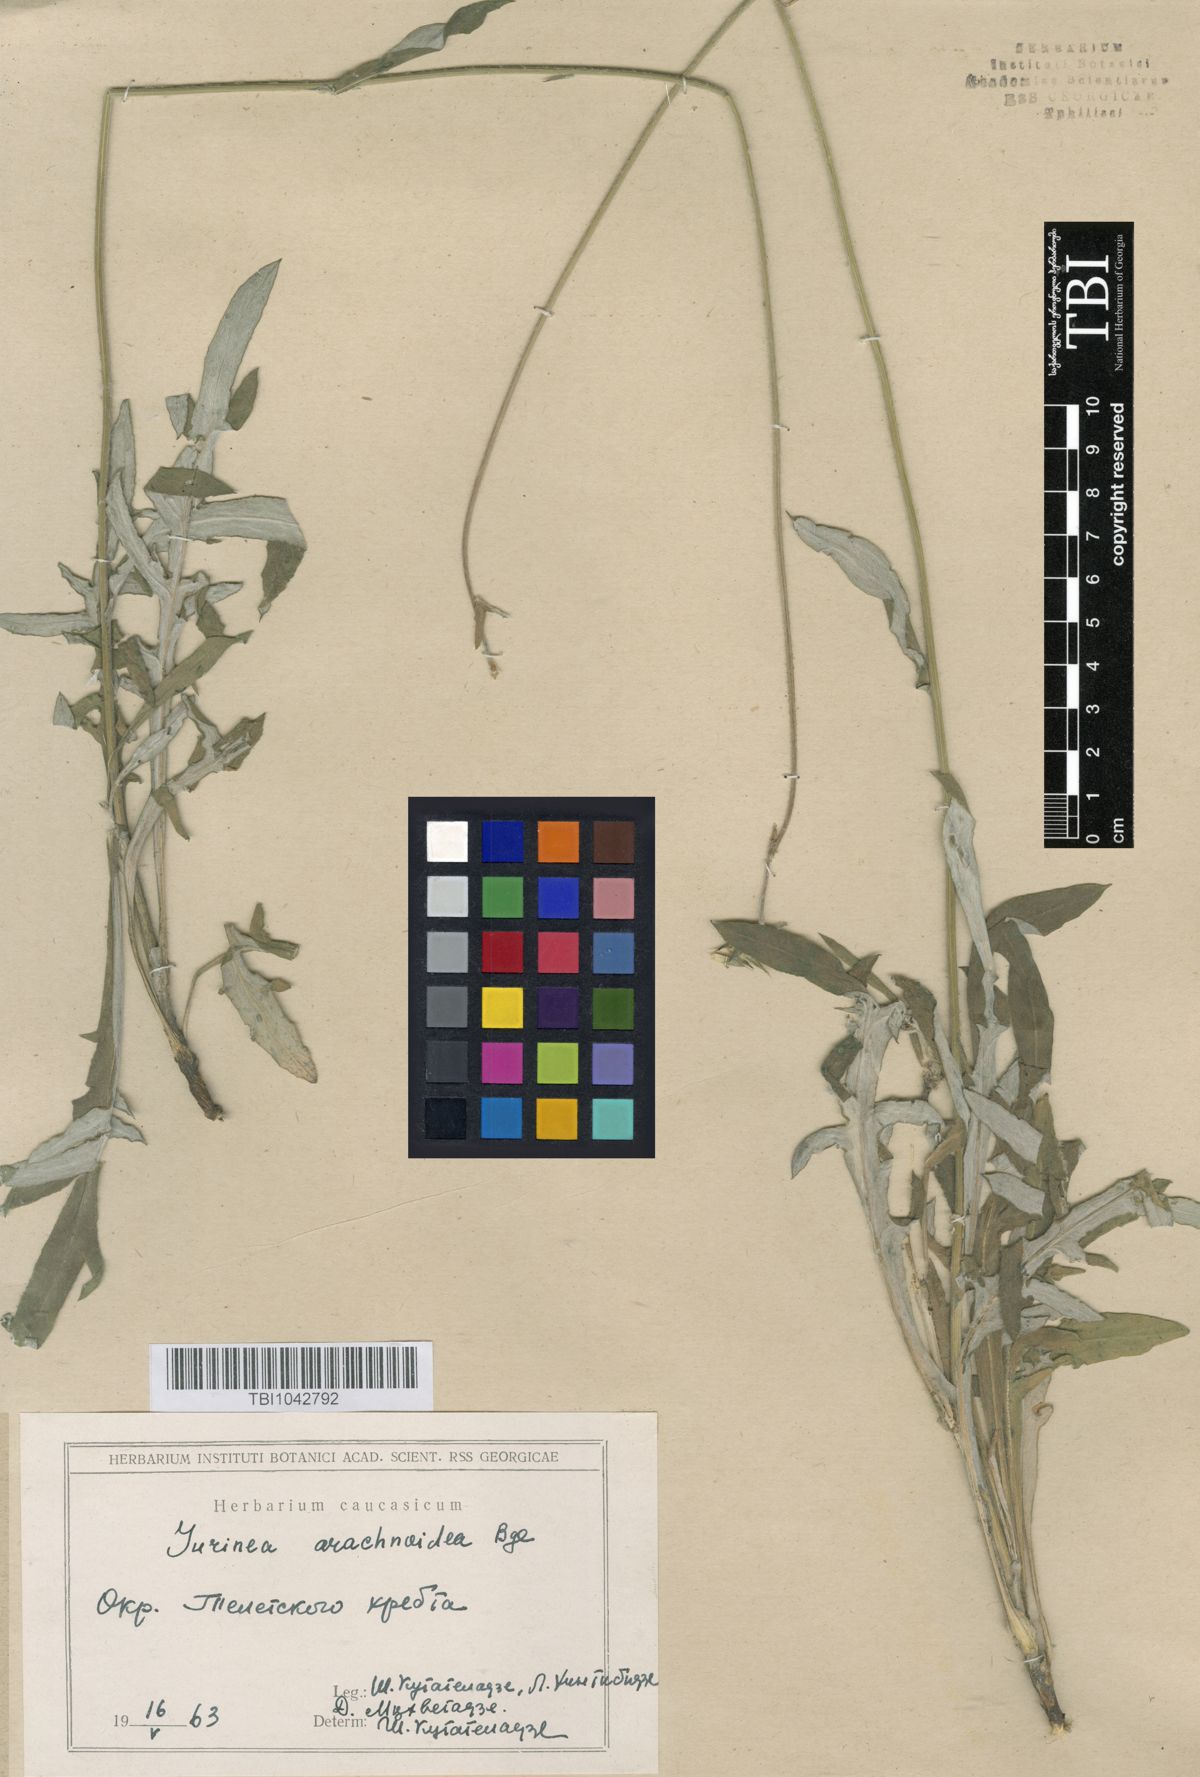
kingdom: Plantae
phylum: Tracheophyta
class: Magnoliopsida
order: Asterales
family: Asteraceae
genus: Jurinea
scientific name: Jurinea blanda
